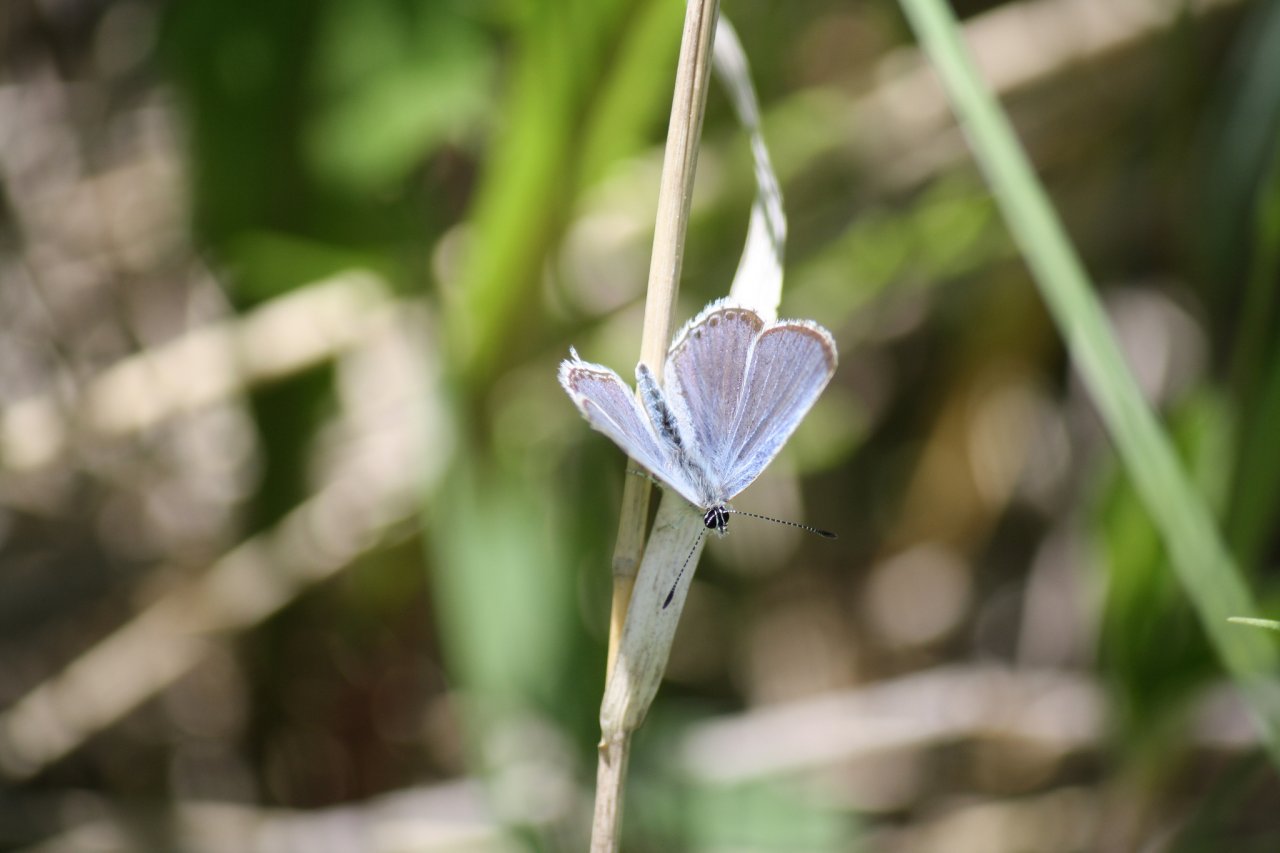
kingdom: Animalia
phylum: Arthropoda
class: Insecta
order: Lepidoptera
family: Lycaenidae
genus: Elkalyce
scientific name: Elkalyce amyntula
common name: Western Tailed-Blue
